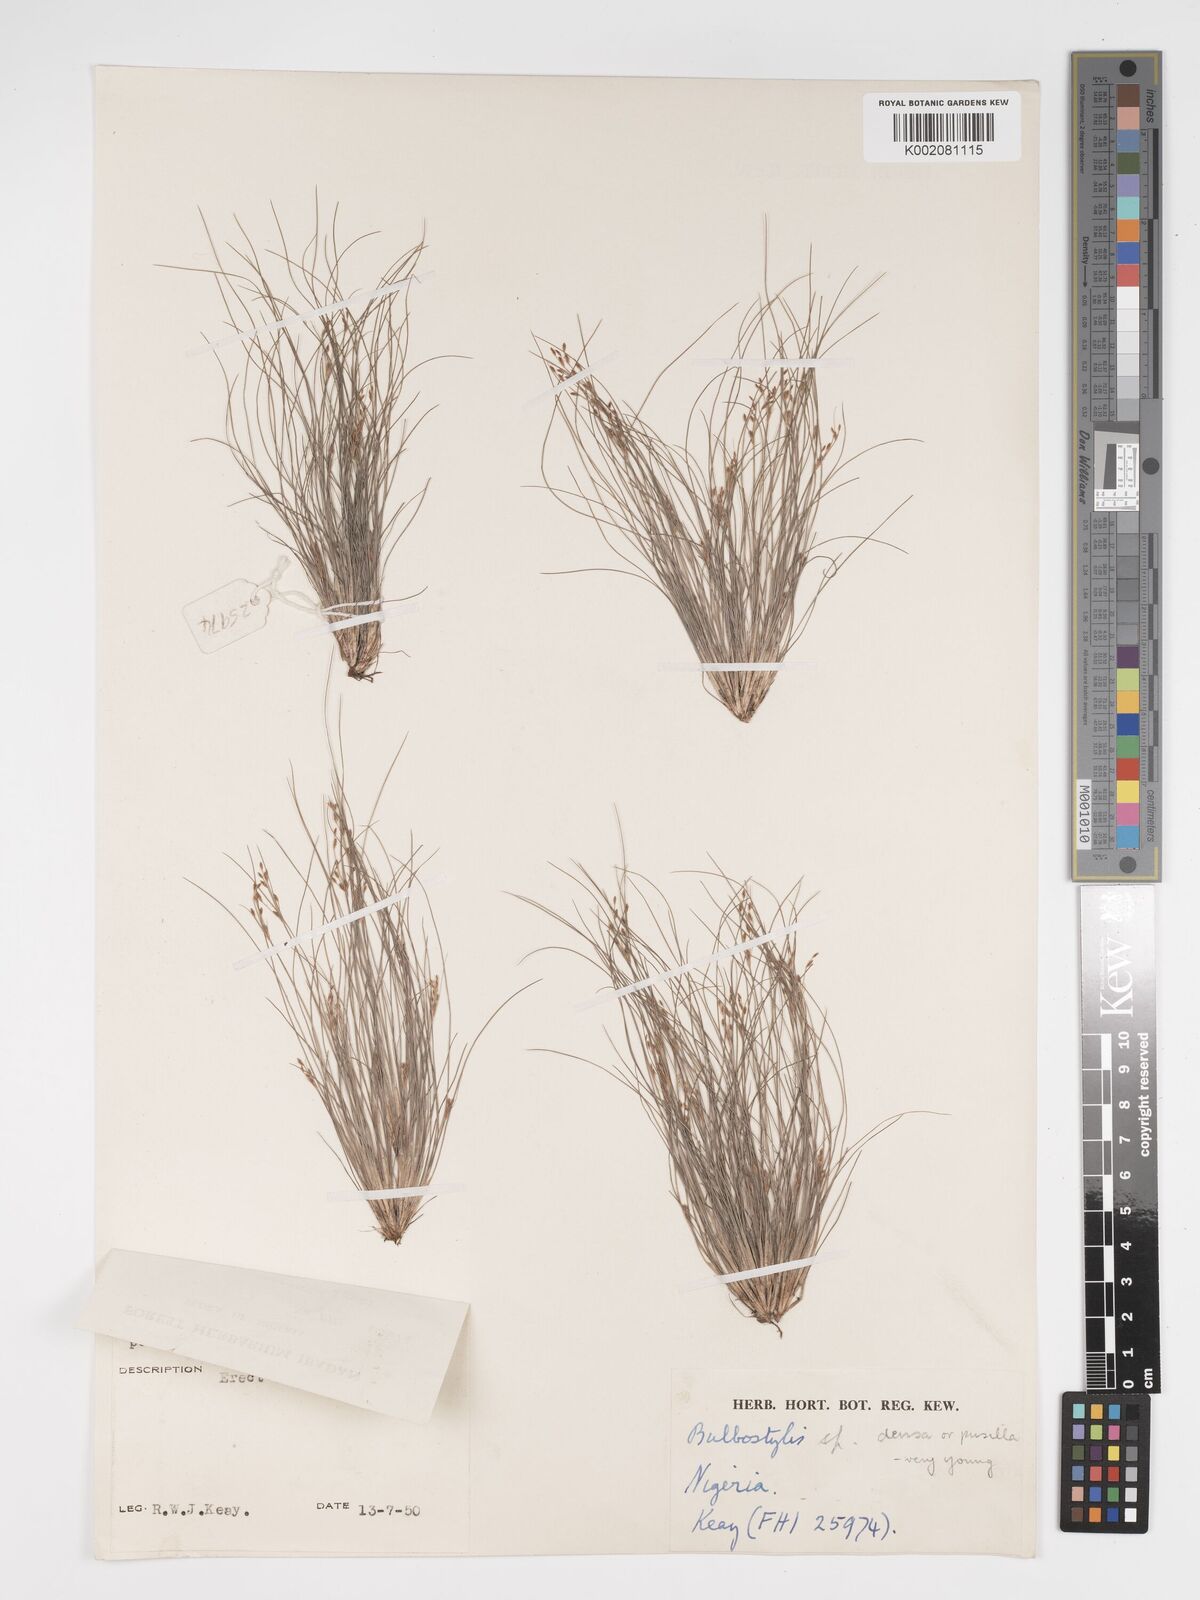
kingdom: Plantae
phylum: Tracheophyta
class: Liliopsida
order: Poales
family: Cyperaceae
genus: Bulbostylis
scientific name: Bulbostylis pusilla
